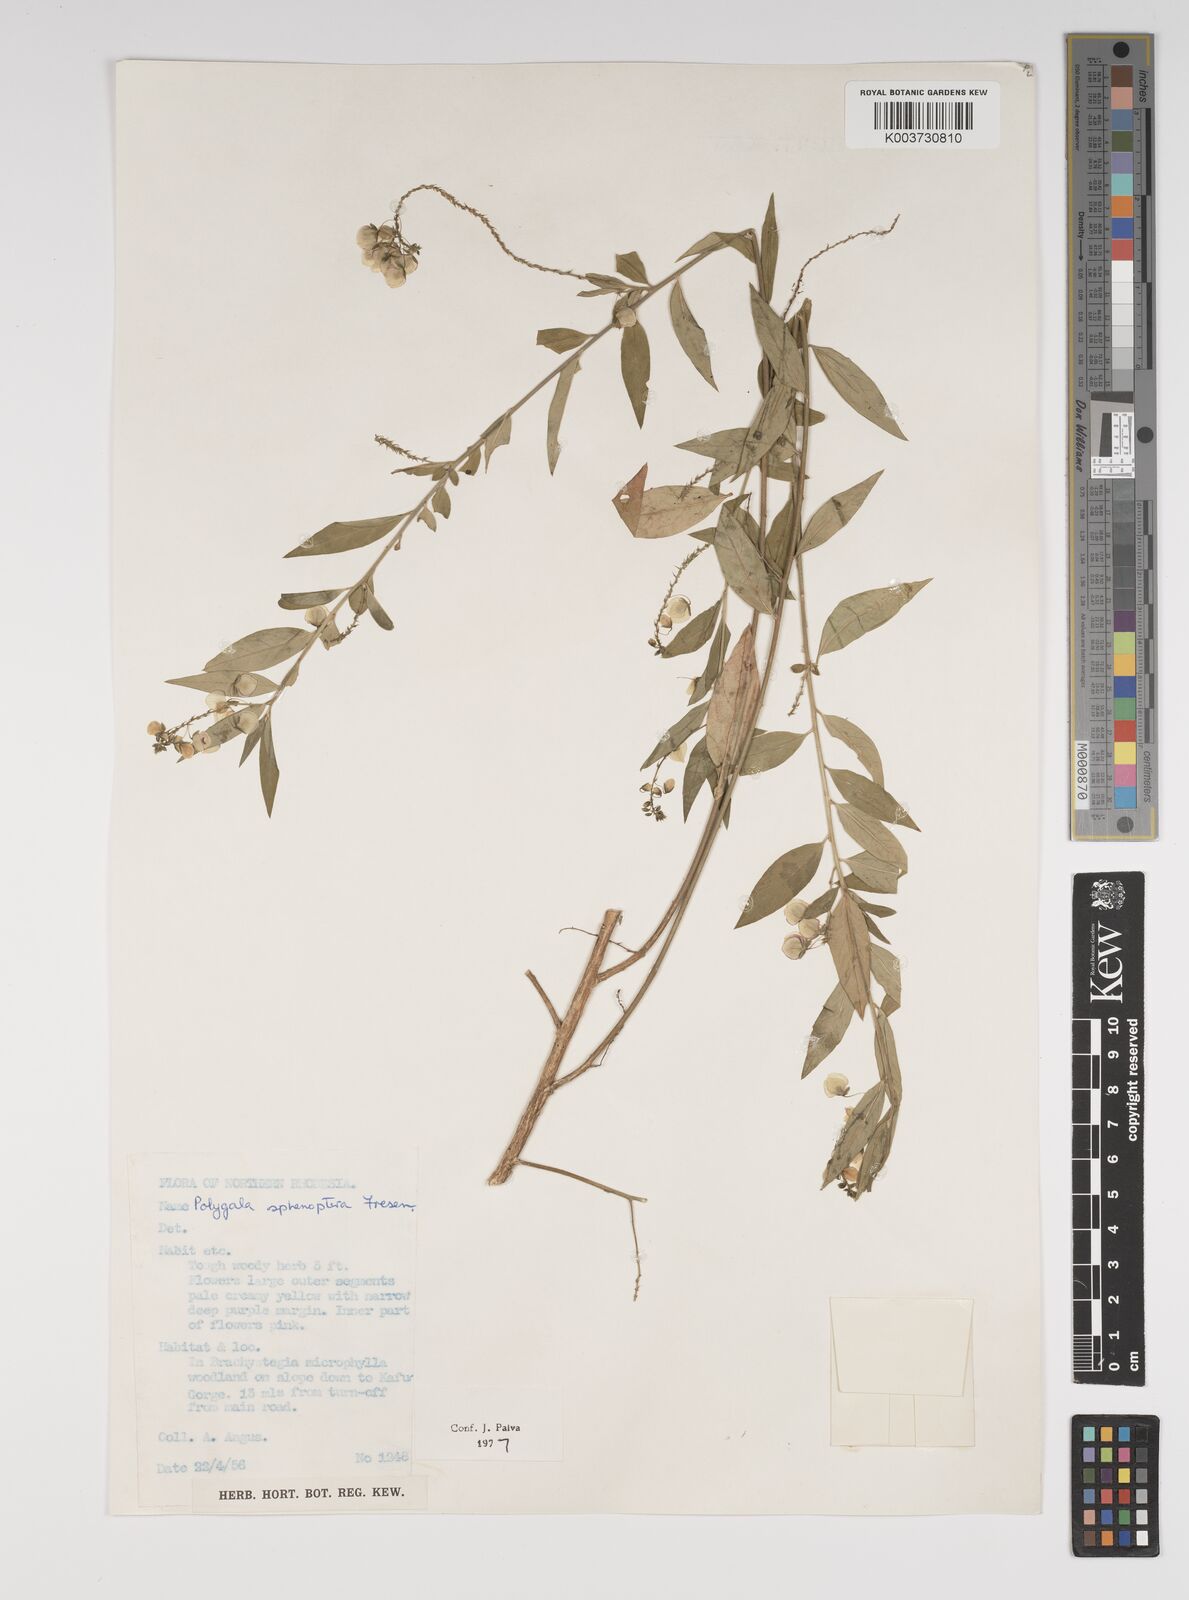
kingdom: Plantae
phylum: Tracheophyta
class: Magnoliopsida
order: Fabales
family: Polygalaceae
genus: Polygala
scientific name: Polygala sphenoptera
